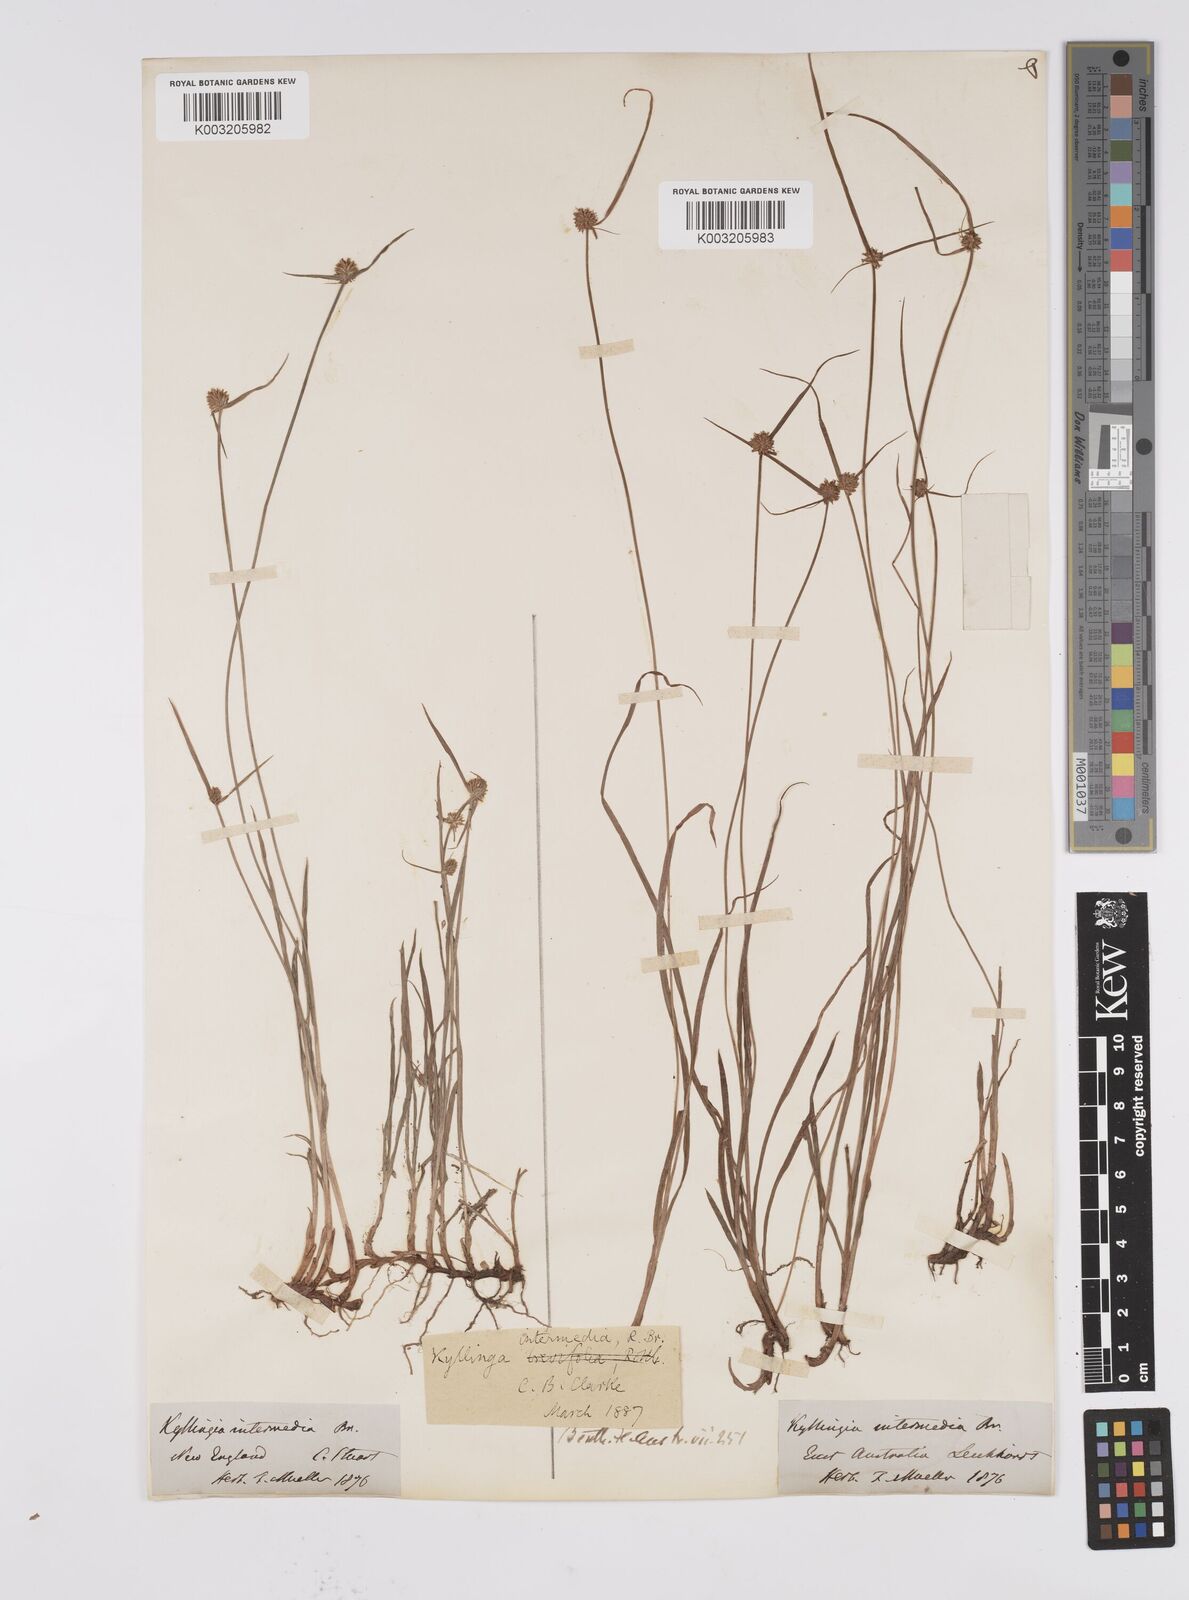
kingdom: Plantae
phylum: Tracheophyta
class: Liliopsida
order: Poales
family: Cyperaceae
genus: Cyperus
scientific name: Cyperus brevifolius
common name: Globe kyllinga
